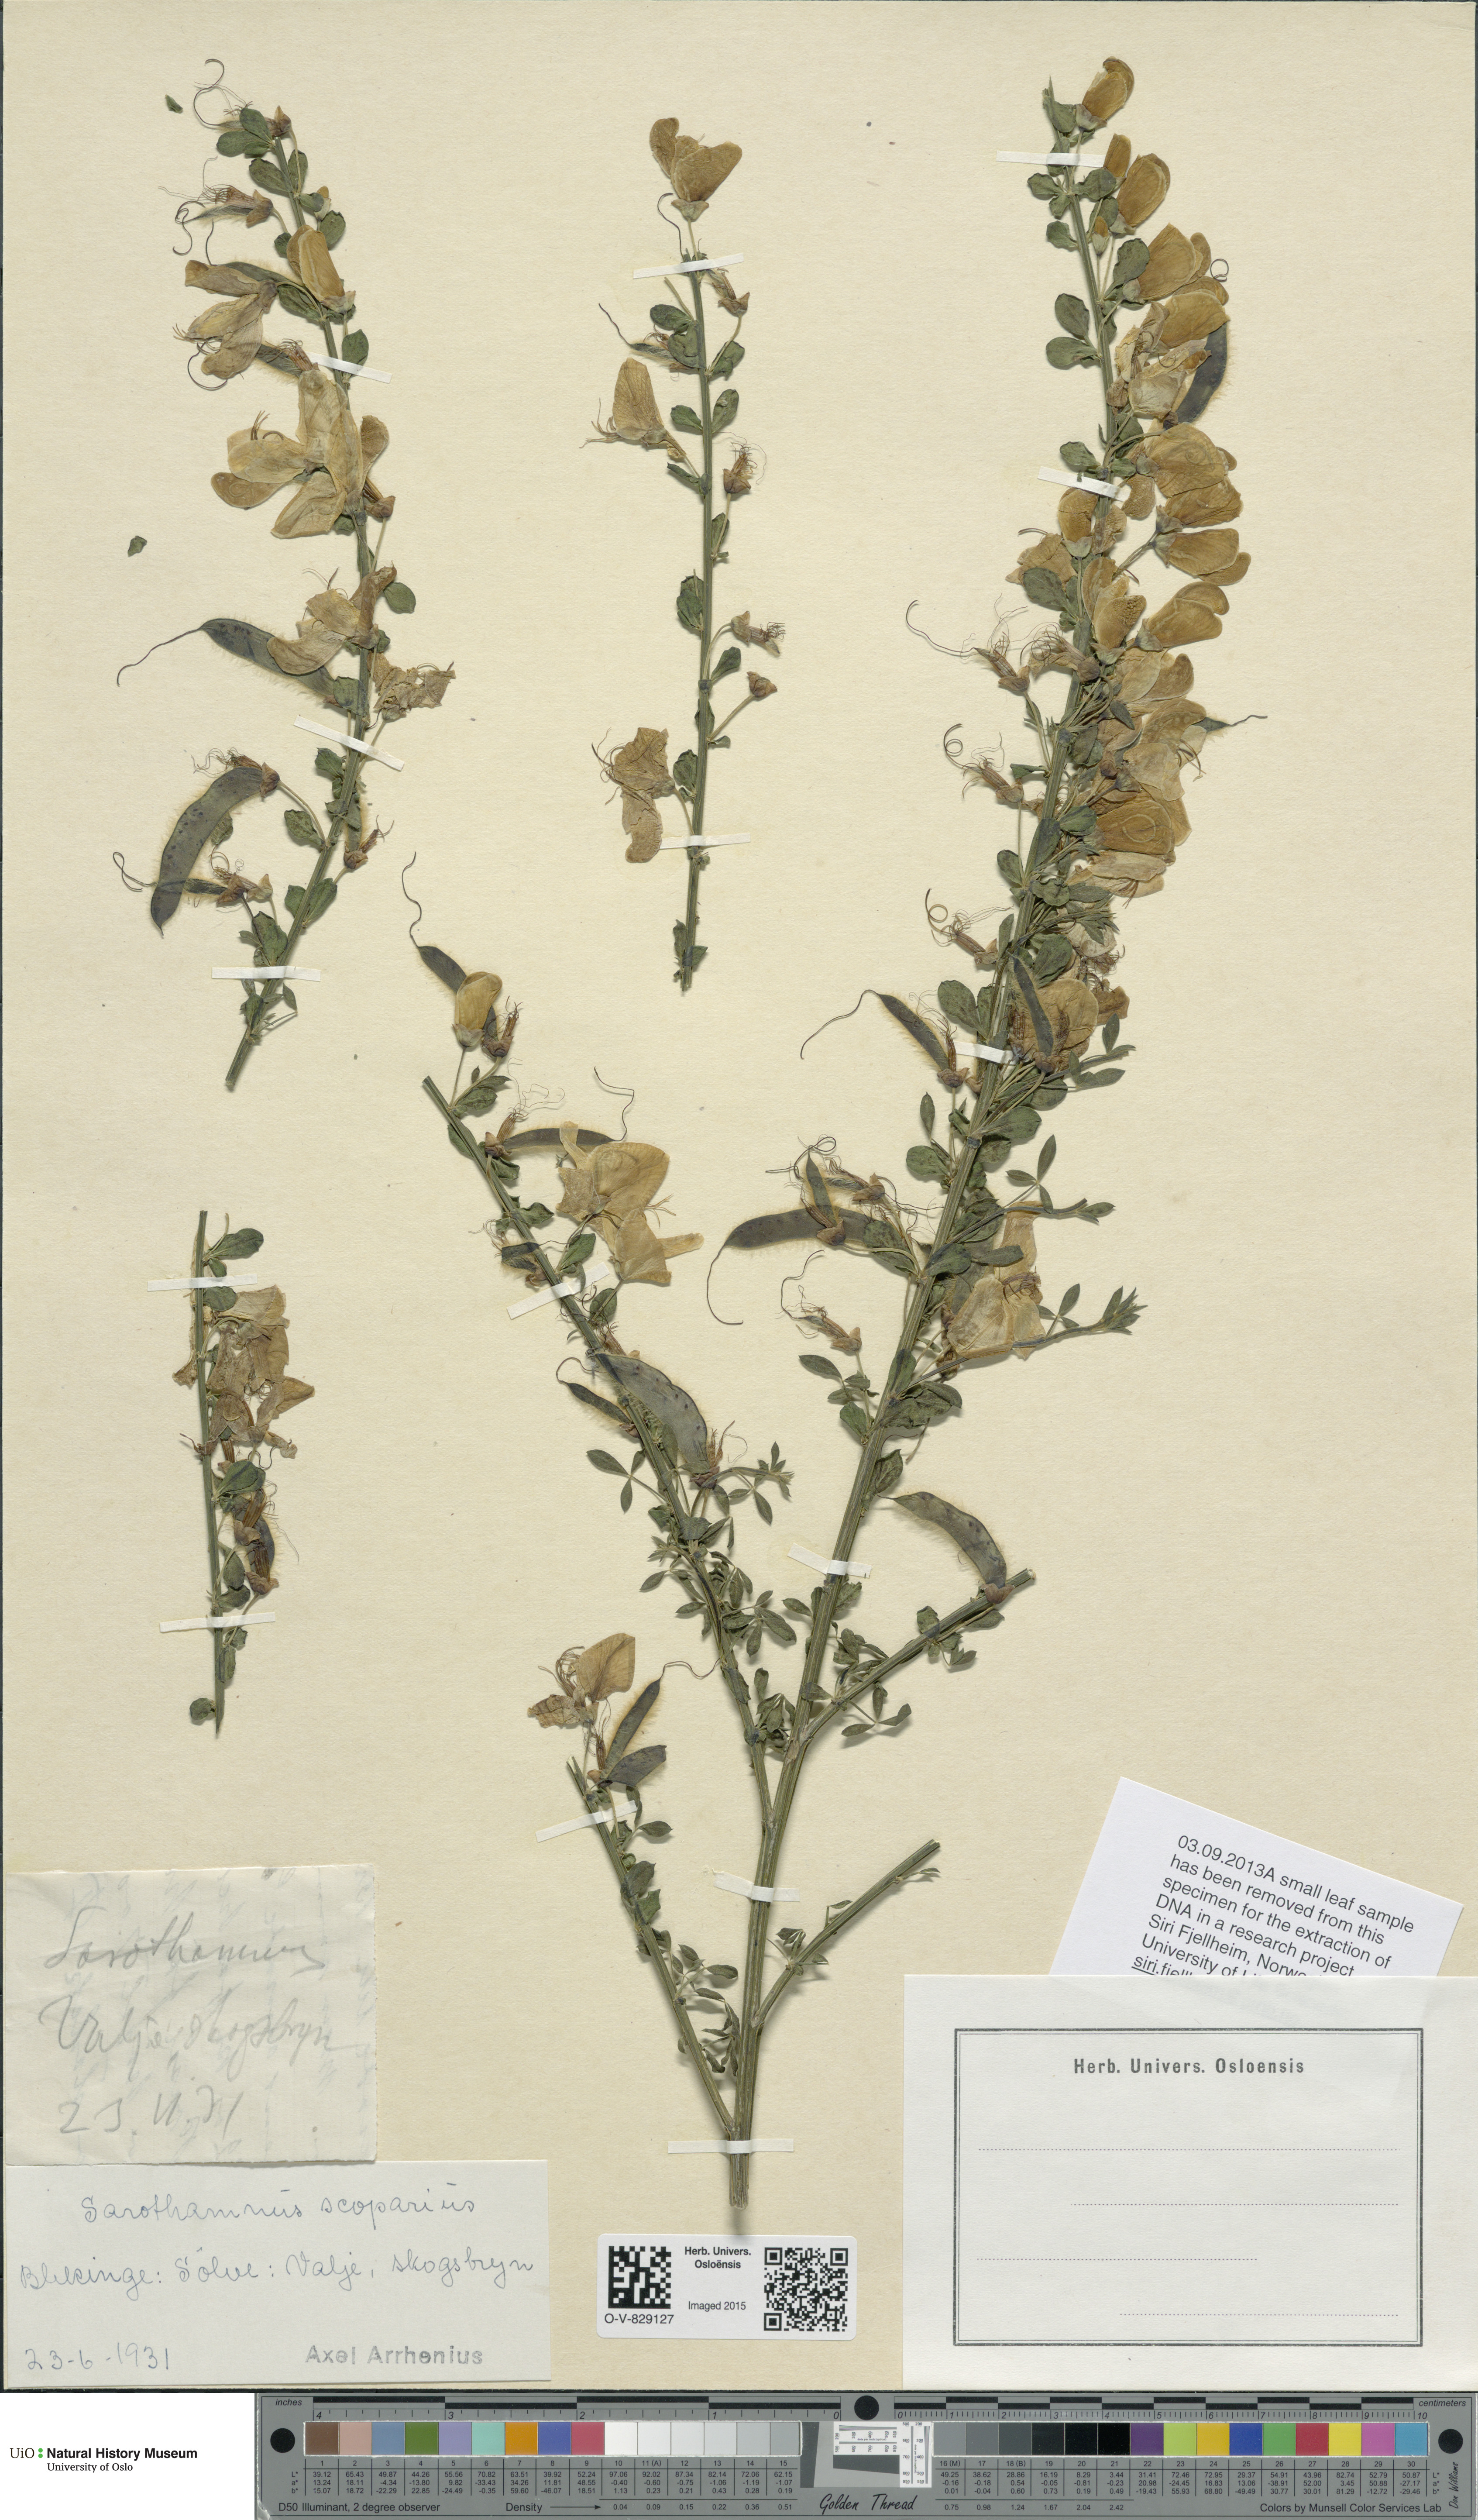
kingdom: Plantae
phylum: Tracheophyta
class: Magnoliopsida
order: Fabales
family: Fabaceae
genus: Cytisus
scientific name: Cytisus scoparius
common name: Scotch broom
